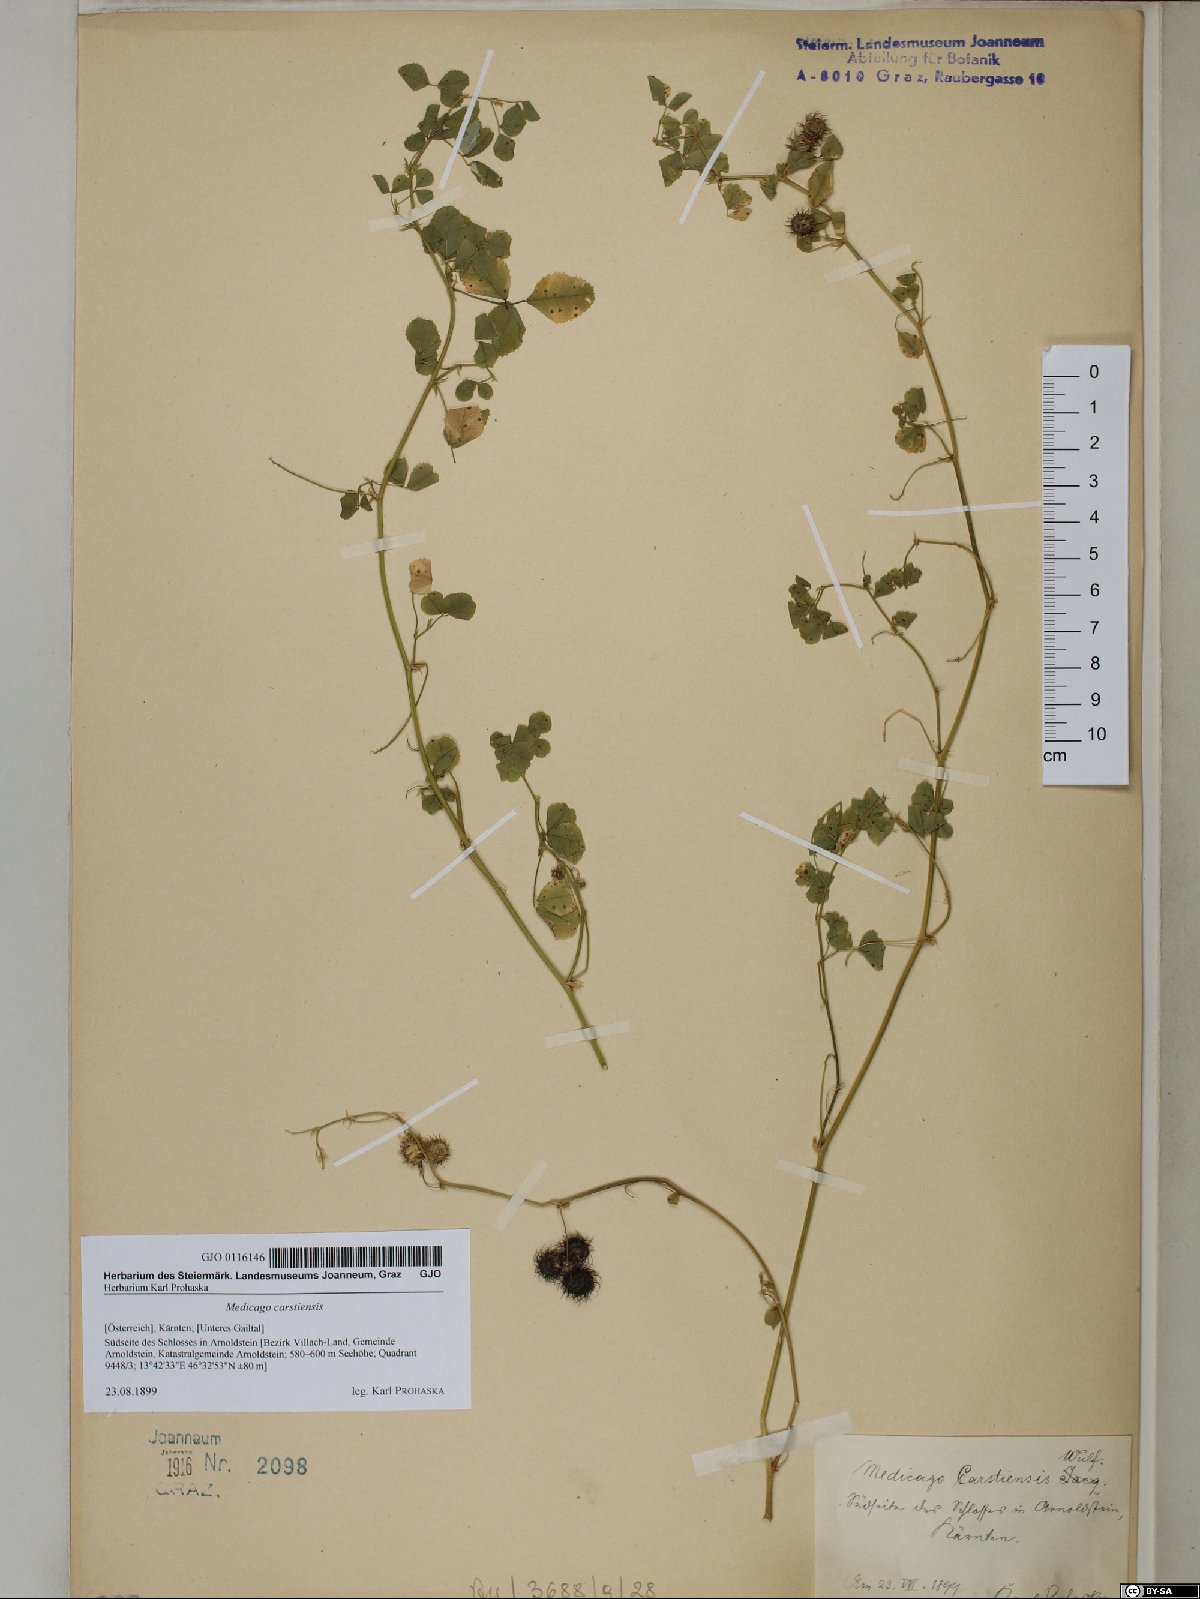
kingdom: Plantae
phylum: Tracheophyta
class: Magnoliopsida
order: Fabales
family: Fabaceae
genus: Medicago
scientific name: Medicago carstiensis
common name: Creeping-rooted medic
